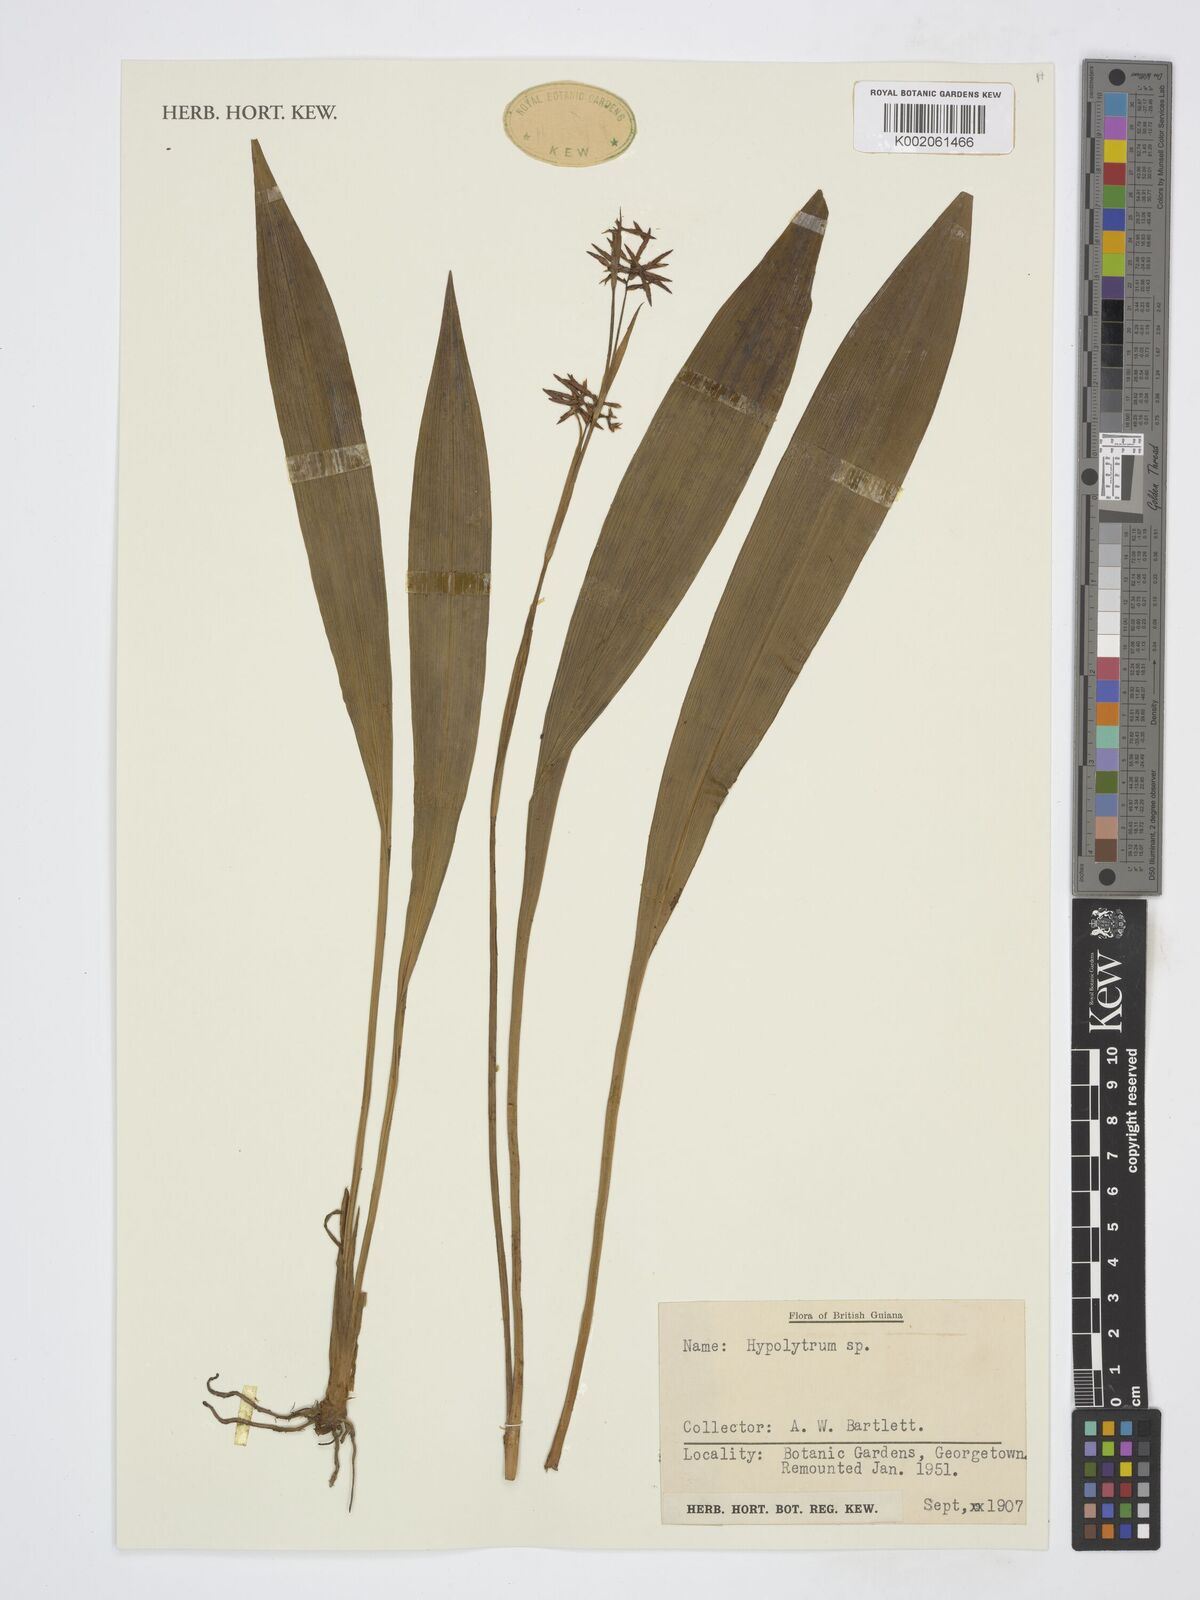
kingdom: Plantae
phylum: Tracheophyta
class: Liliopsida
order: Poales
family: Cyperaceae
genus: Hypolytrum
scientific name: Hypolytrum
